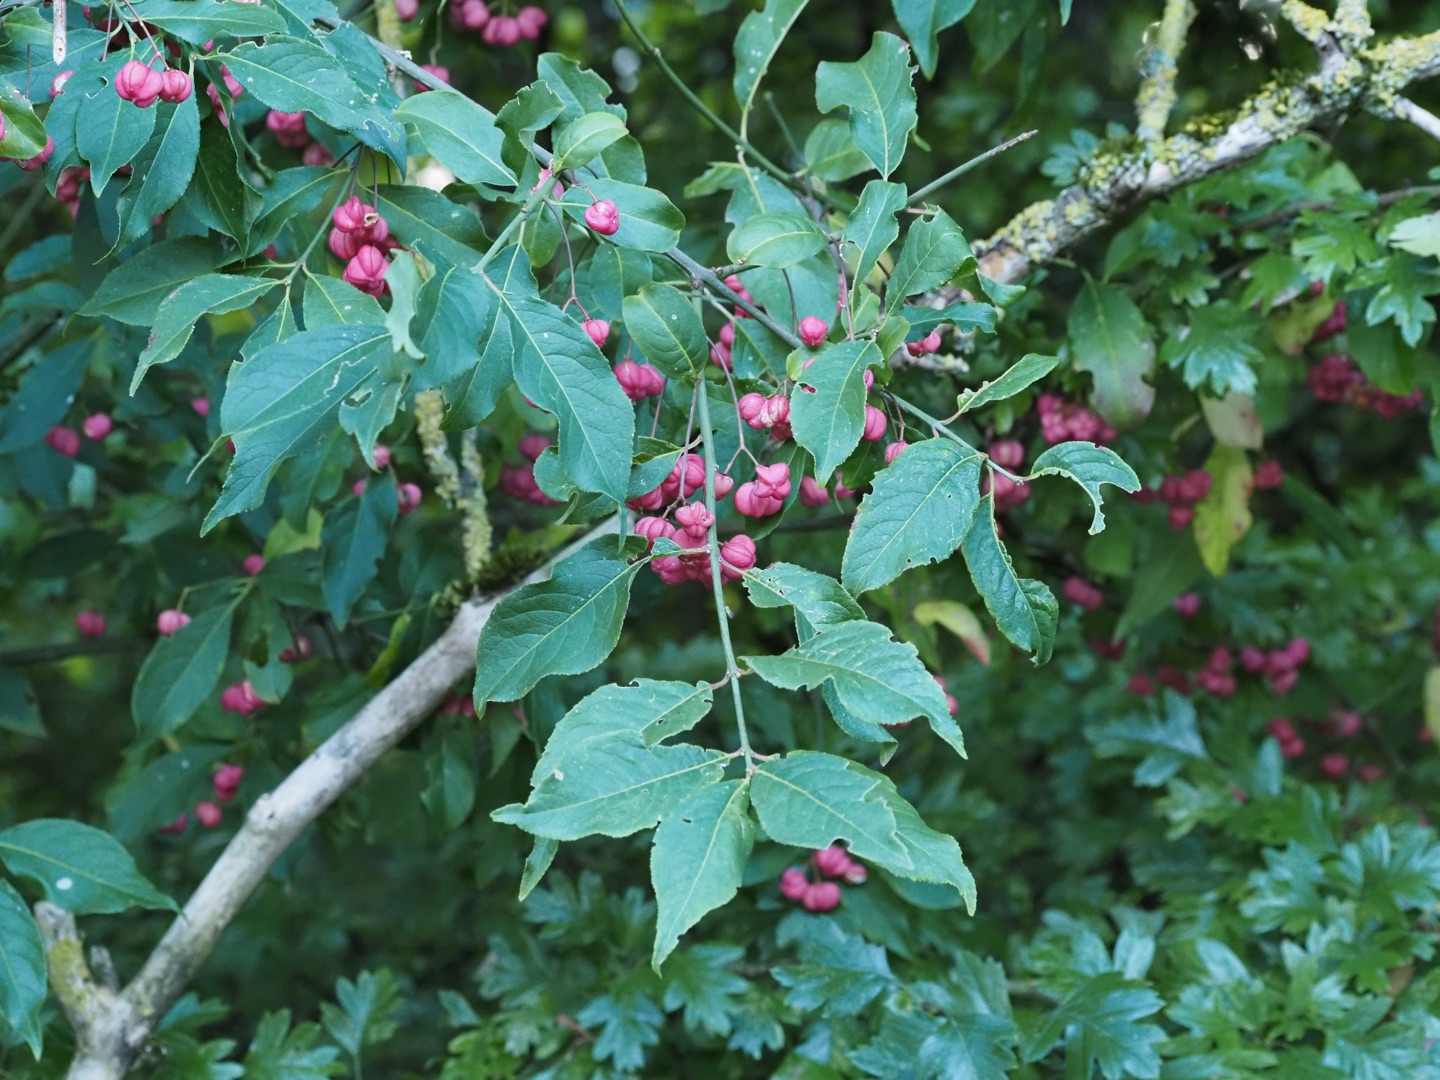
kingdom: Plantae
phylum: Tracheophyta
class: Magnoliopsida
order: Celastrales
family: Celastraceae
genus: Euonymus
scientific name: Euonymus europaeus
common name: Benved
